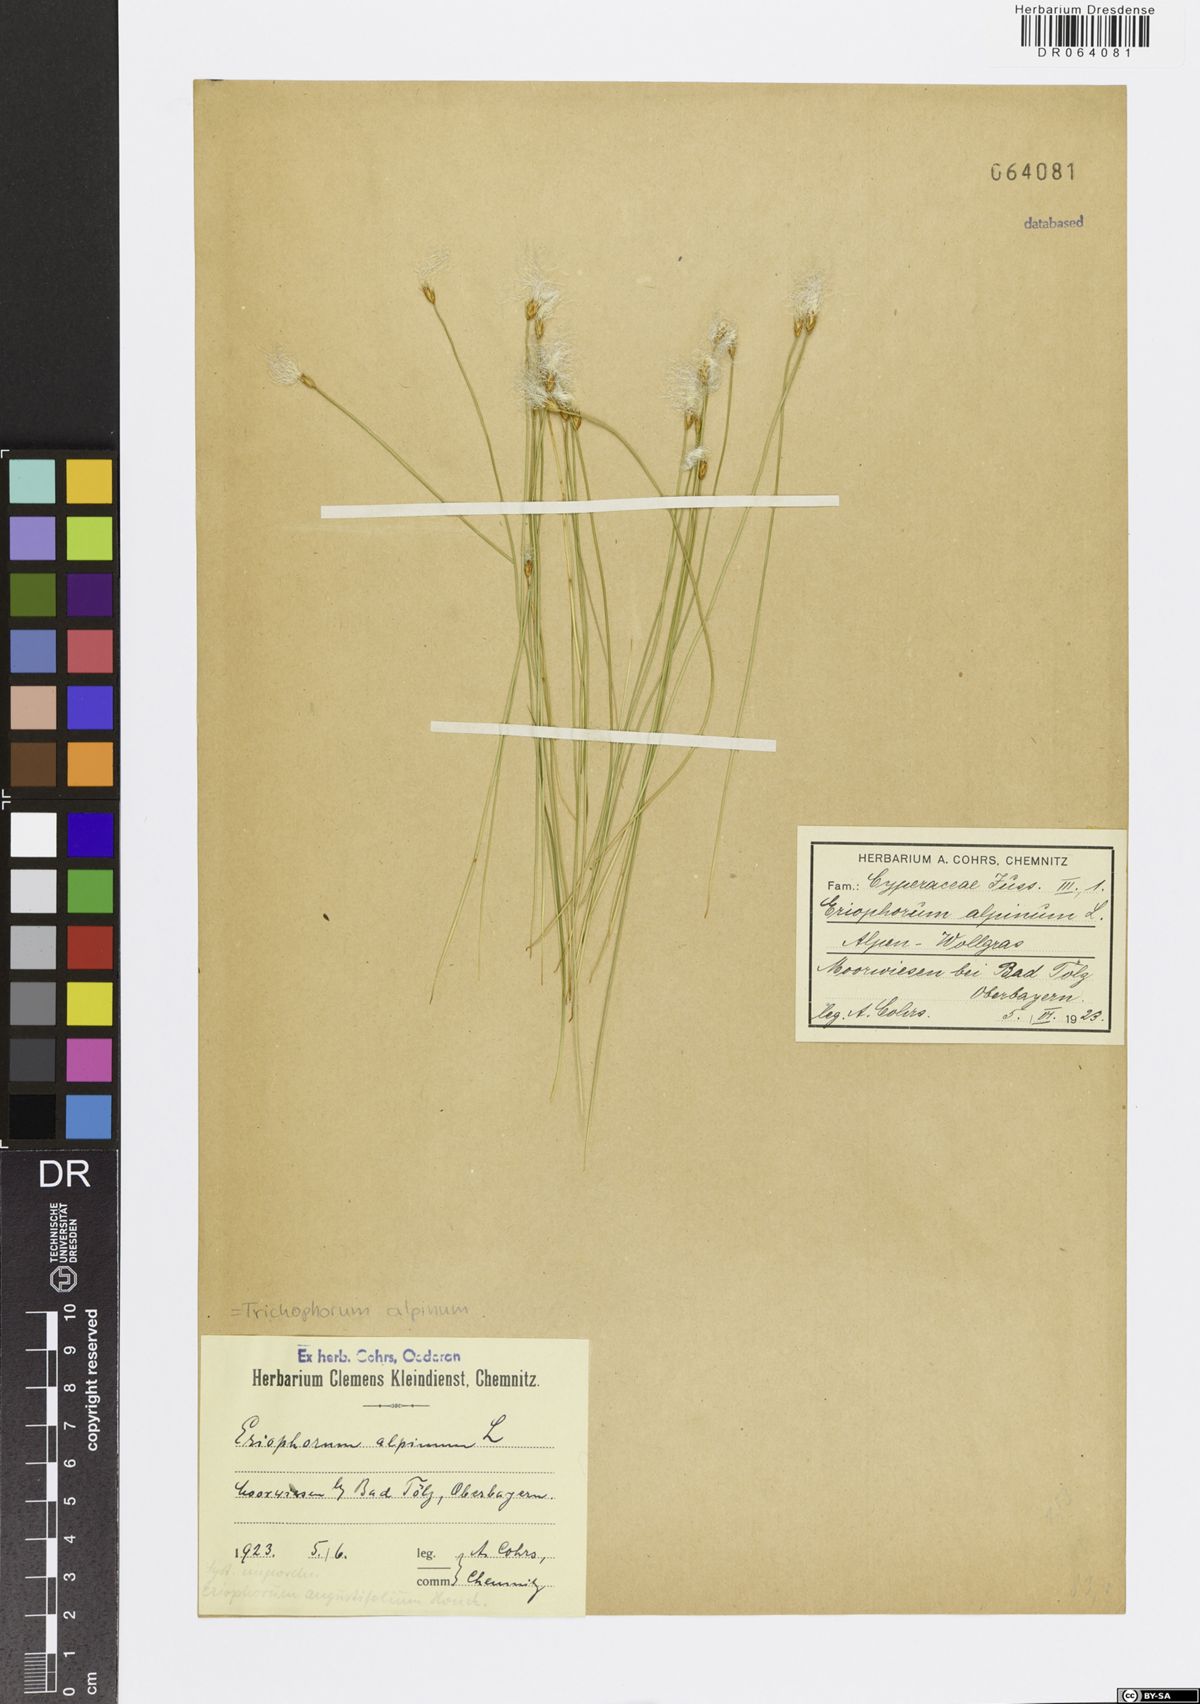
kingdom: Plantae
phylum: Tracheophyta
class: Liliopsida
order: Poales
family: Cyperaceae
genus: Trichophorum
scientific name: Trichophorum alpinum
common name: Alpine bulrush
